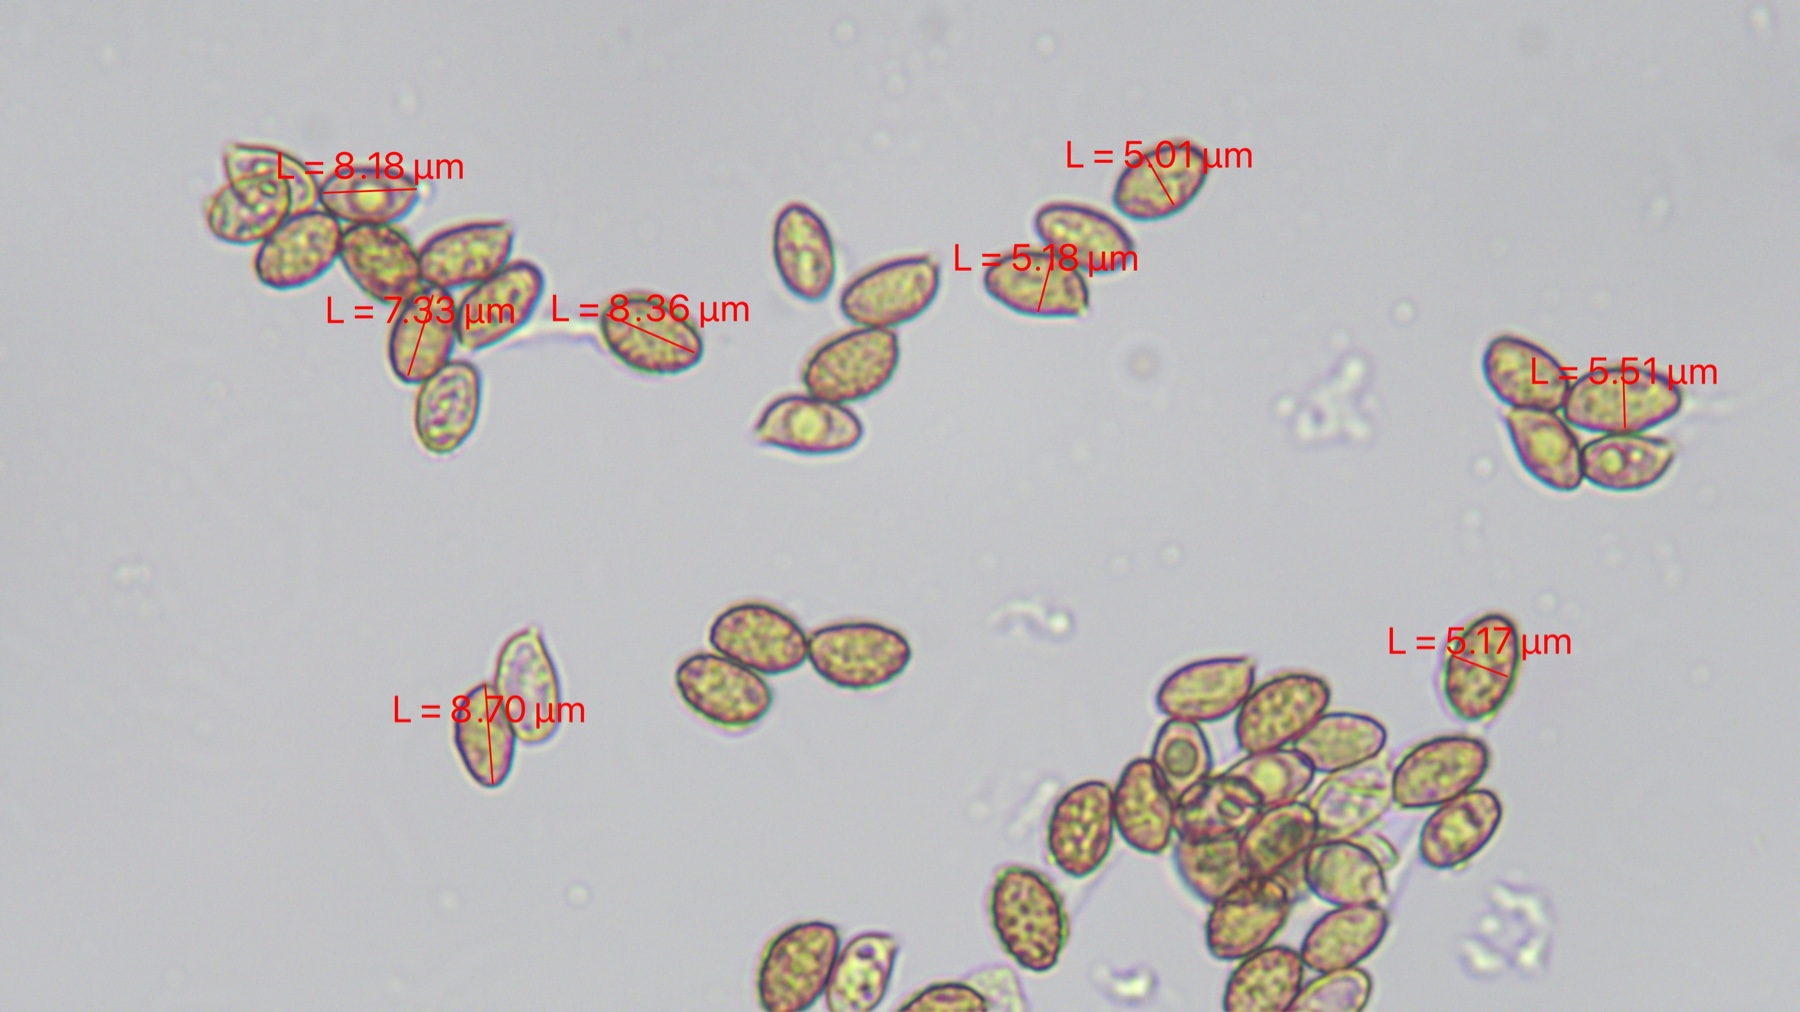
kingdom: Fungi
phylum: Basidiomycota
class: Agaricomycetes
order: Agaricales
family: Cortinariaceae
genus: Cortinarius
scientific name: Cortinarius
